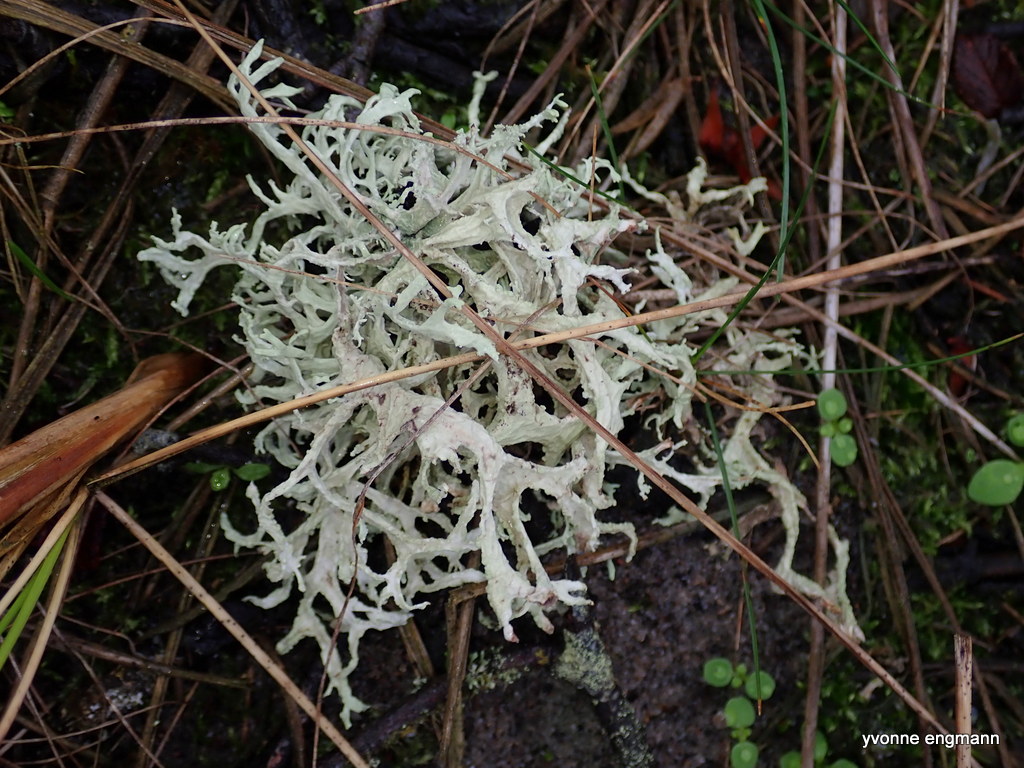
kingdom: Fungi
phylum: Ascomycota
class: Lecanoromycetes
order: Lecanorales
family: Parmeliaceae
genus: Evernia
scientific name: Evernia prunastri
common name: almindelig slåenlav
